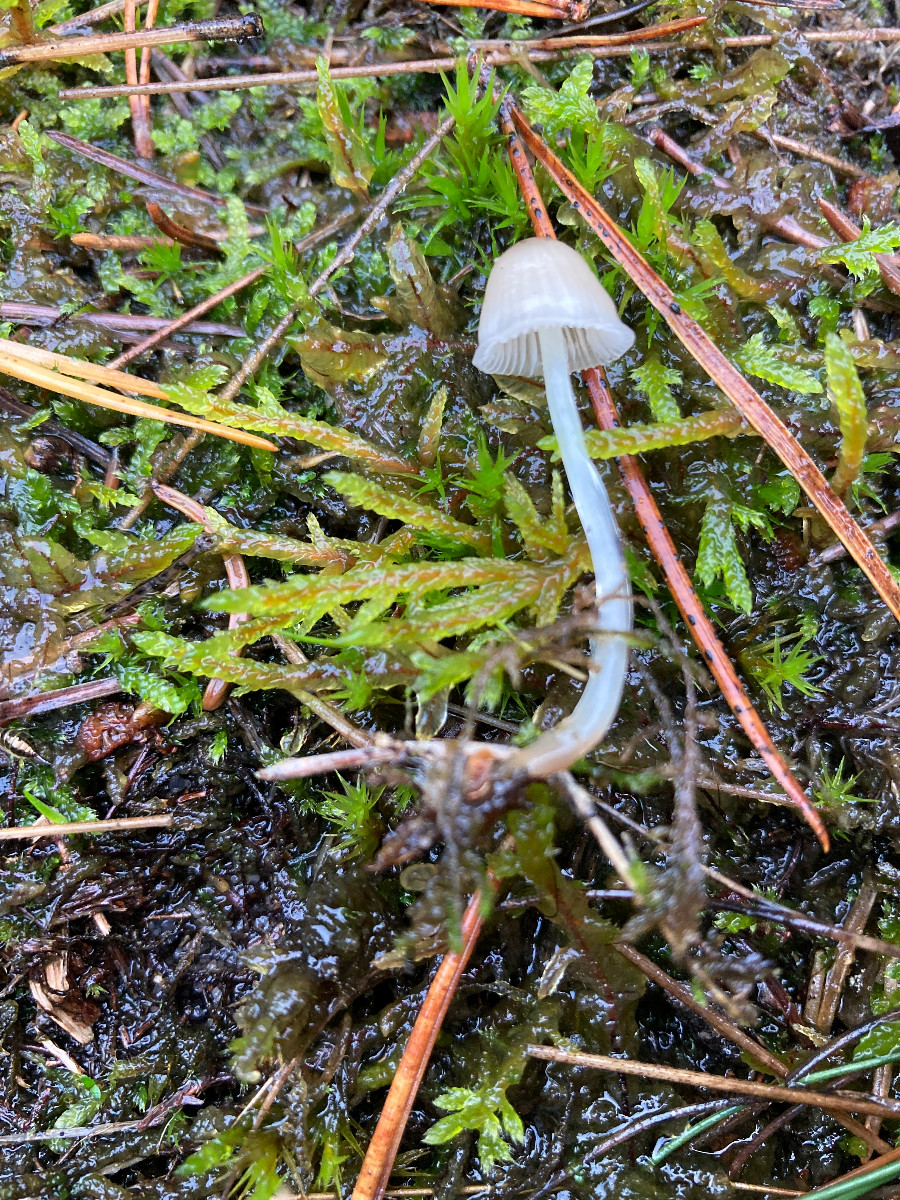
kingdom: Fungi
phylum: Basidiomycota
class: Agaricomycetes
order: Agaricales
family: Mycenaceae
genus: Mycena
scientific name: Mycena
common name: huesvamp
